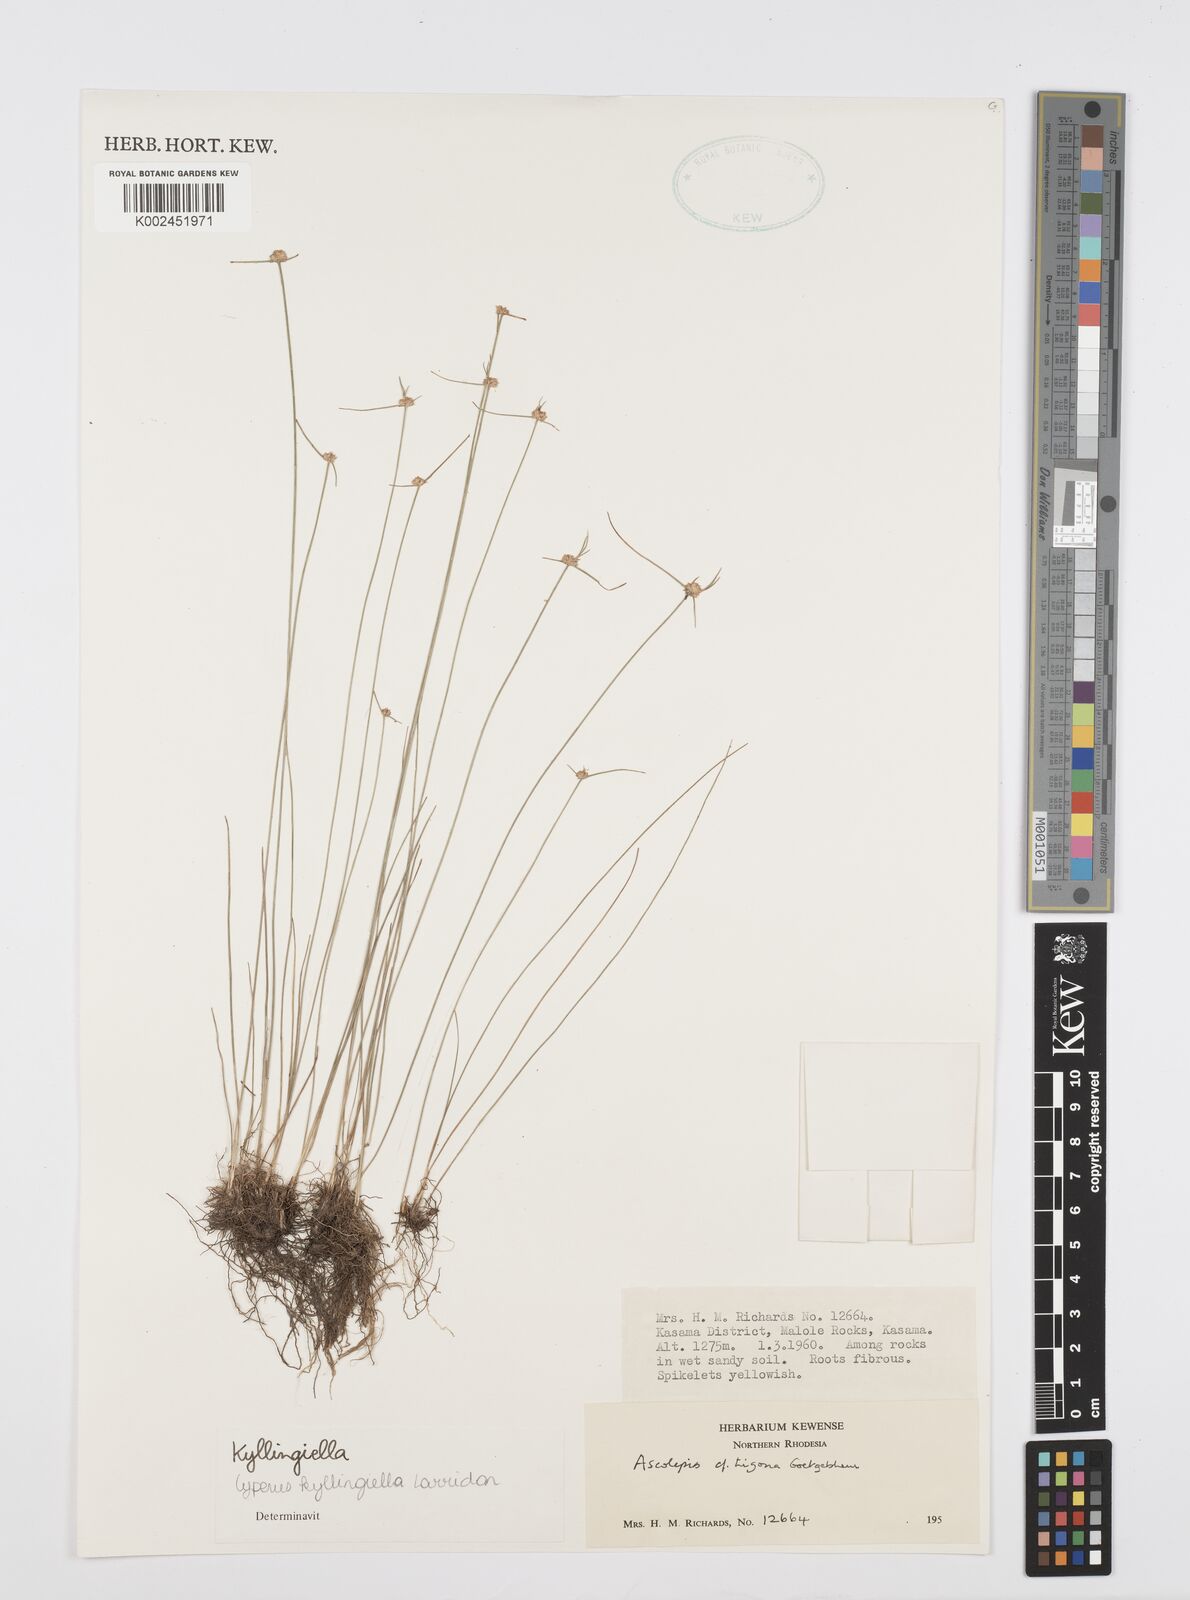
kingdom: Plantae
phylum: Tracheophyta
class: Liliopsida
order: Poales
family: Cyperaceae
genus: Cyperus
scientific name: Cyperus microcephalus
